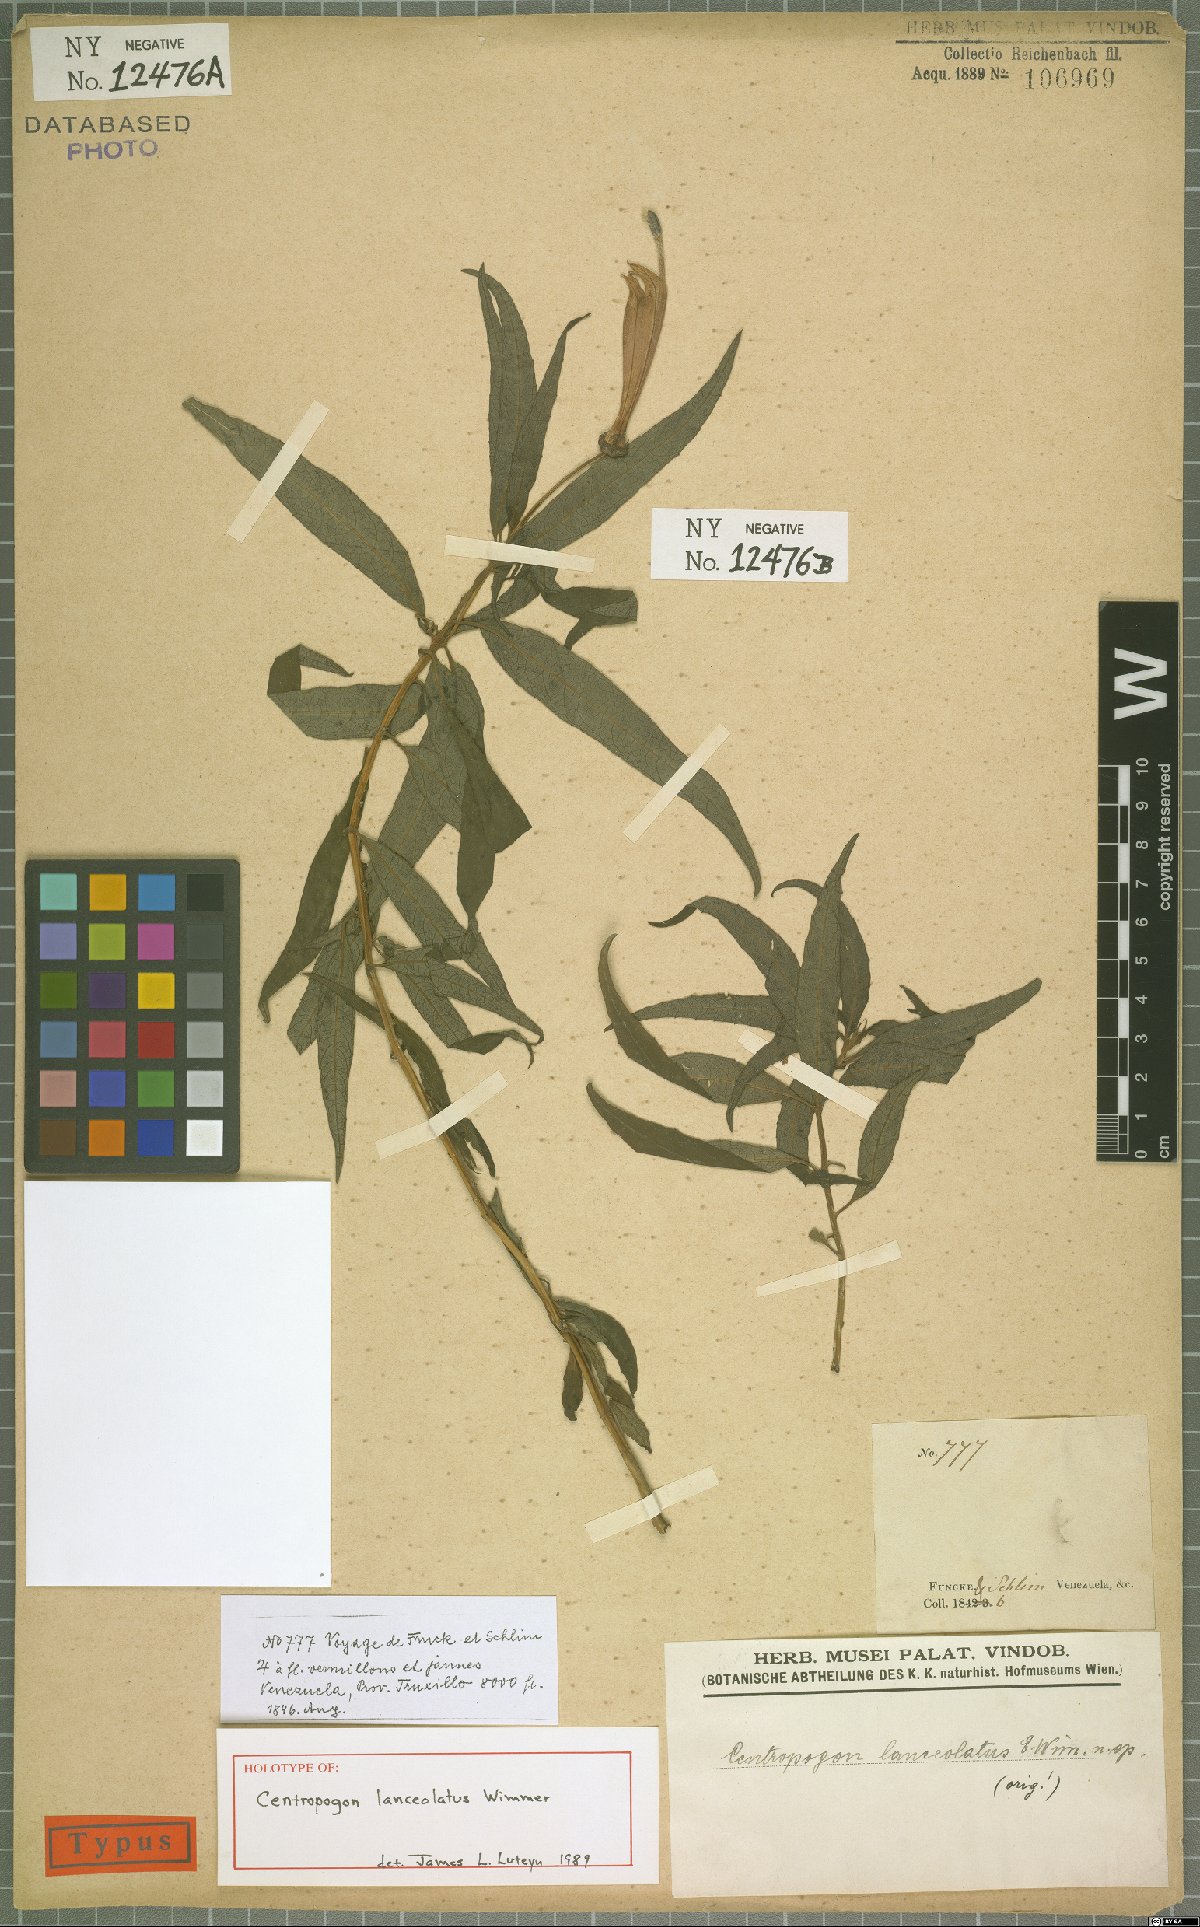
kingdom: Plantae
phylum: Tracheophyta
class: Magnoliopsida
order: Asterales
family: Campanulaceae
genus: Centropogon
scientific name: Centropogon lanceolatus
